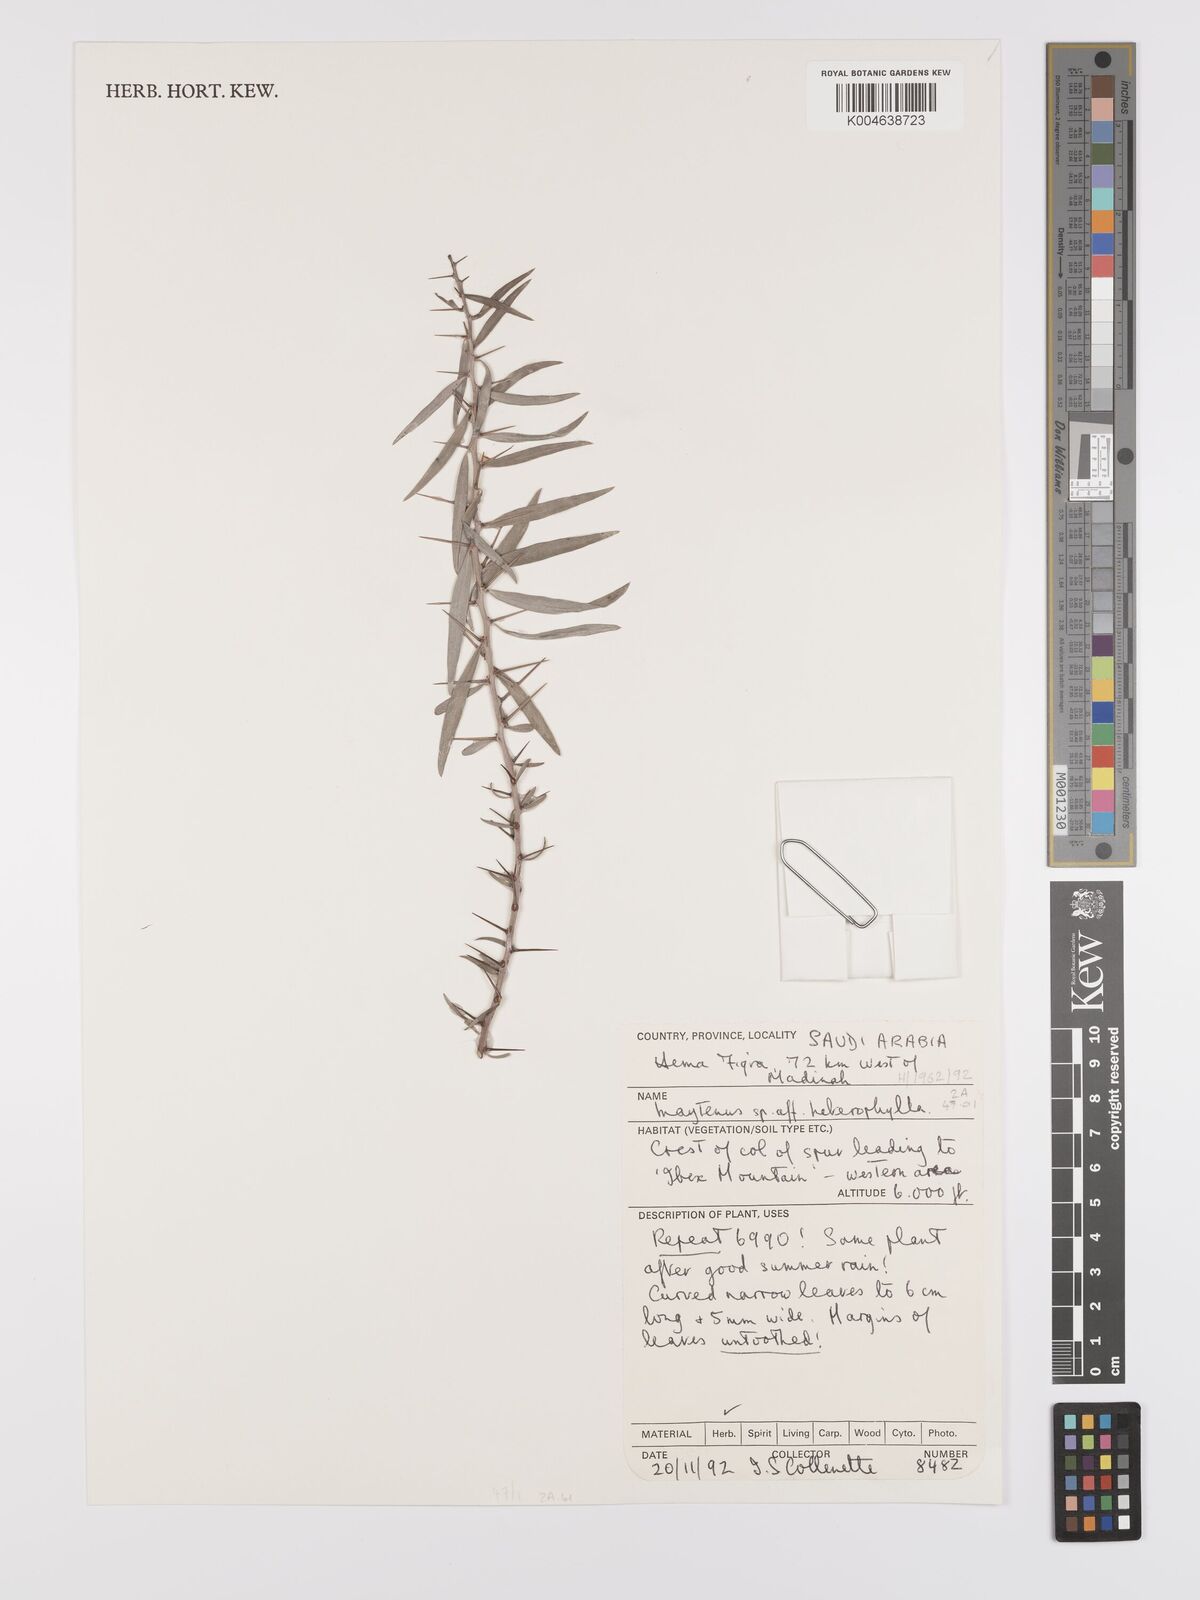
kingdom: Plantae
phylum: Tracheophyta
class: Magnoliopsida
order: Celastrales
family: Celastraceae
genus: Gymnosporia
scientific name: Gymnosporia heterophylla
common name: Angle-stem spikethorn
